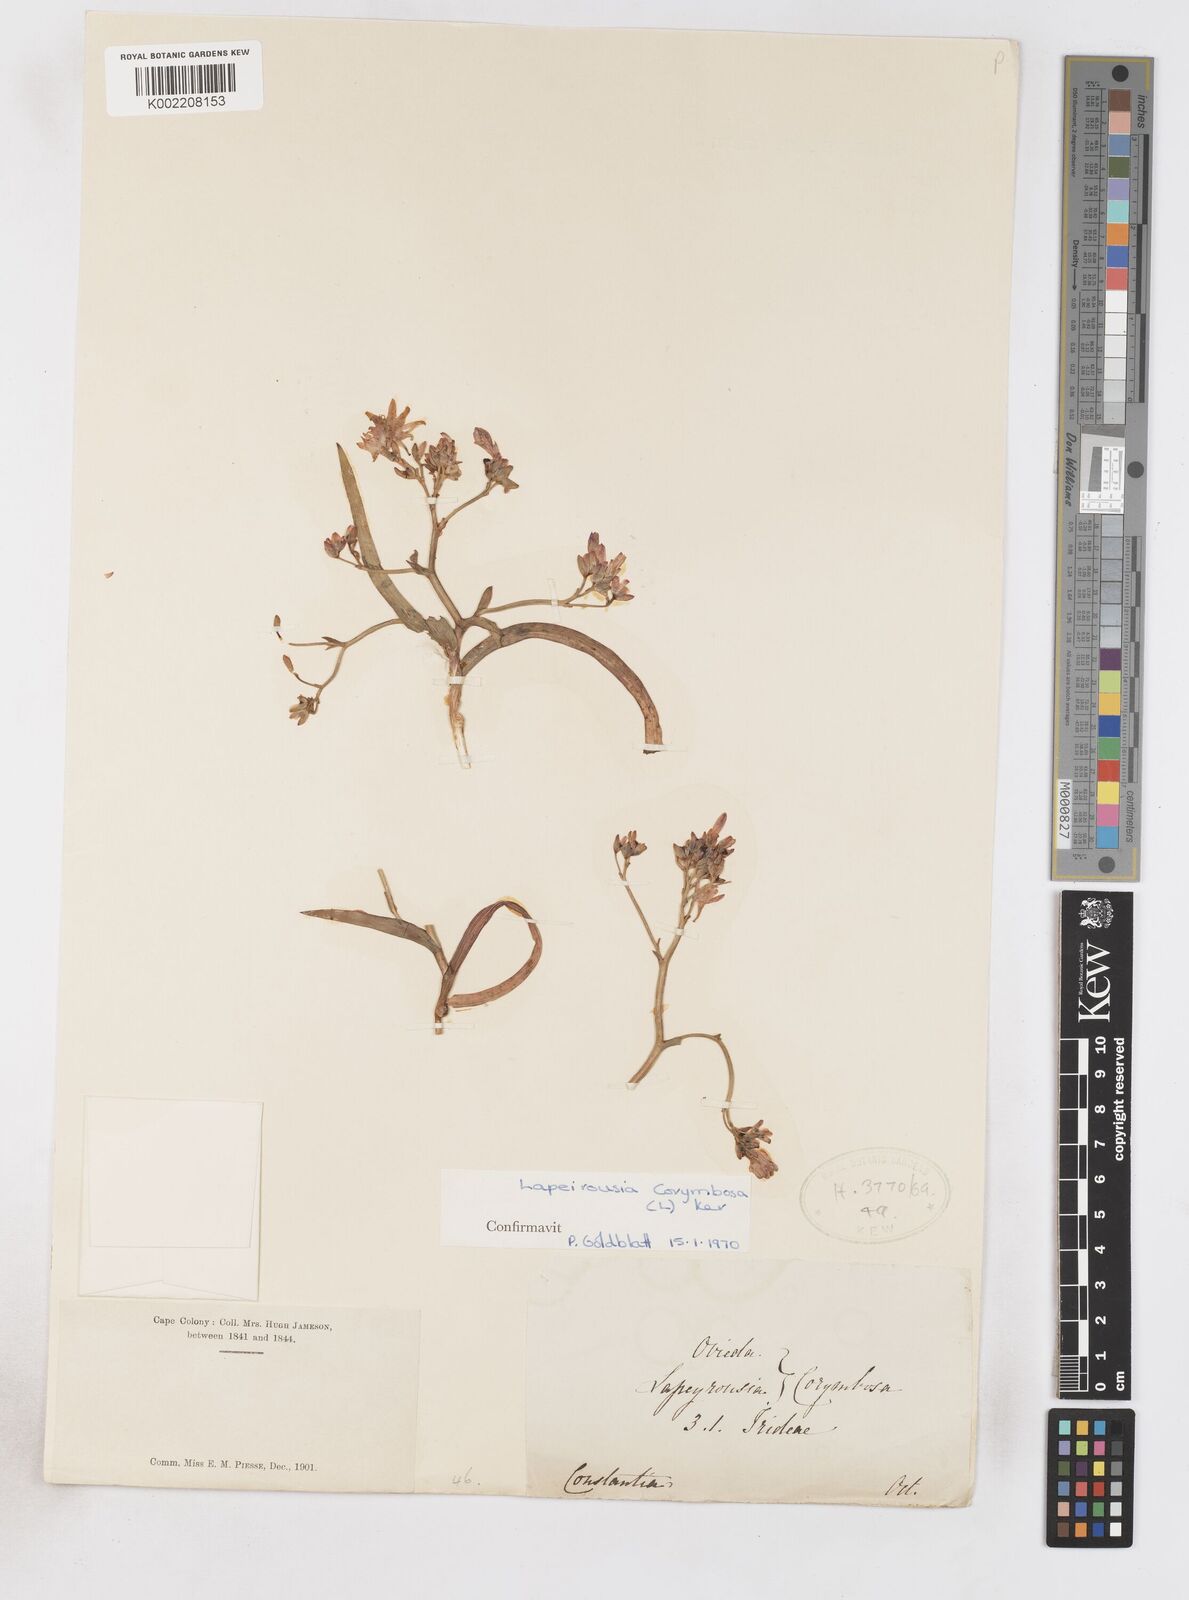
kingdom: Plantae
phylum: Tracheophyta
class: Liliopsida
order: Asparagales
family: Iridaceae
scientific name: Iridaceae
